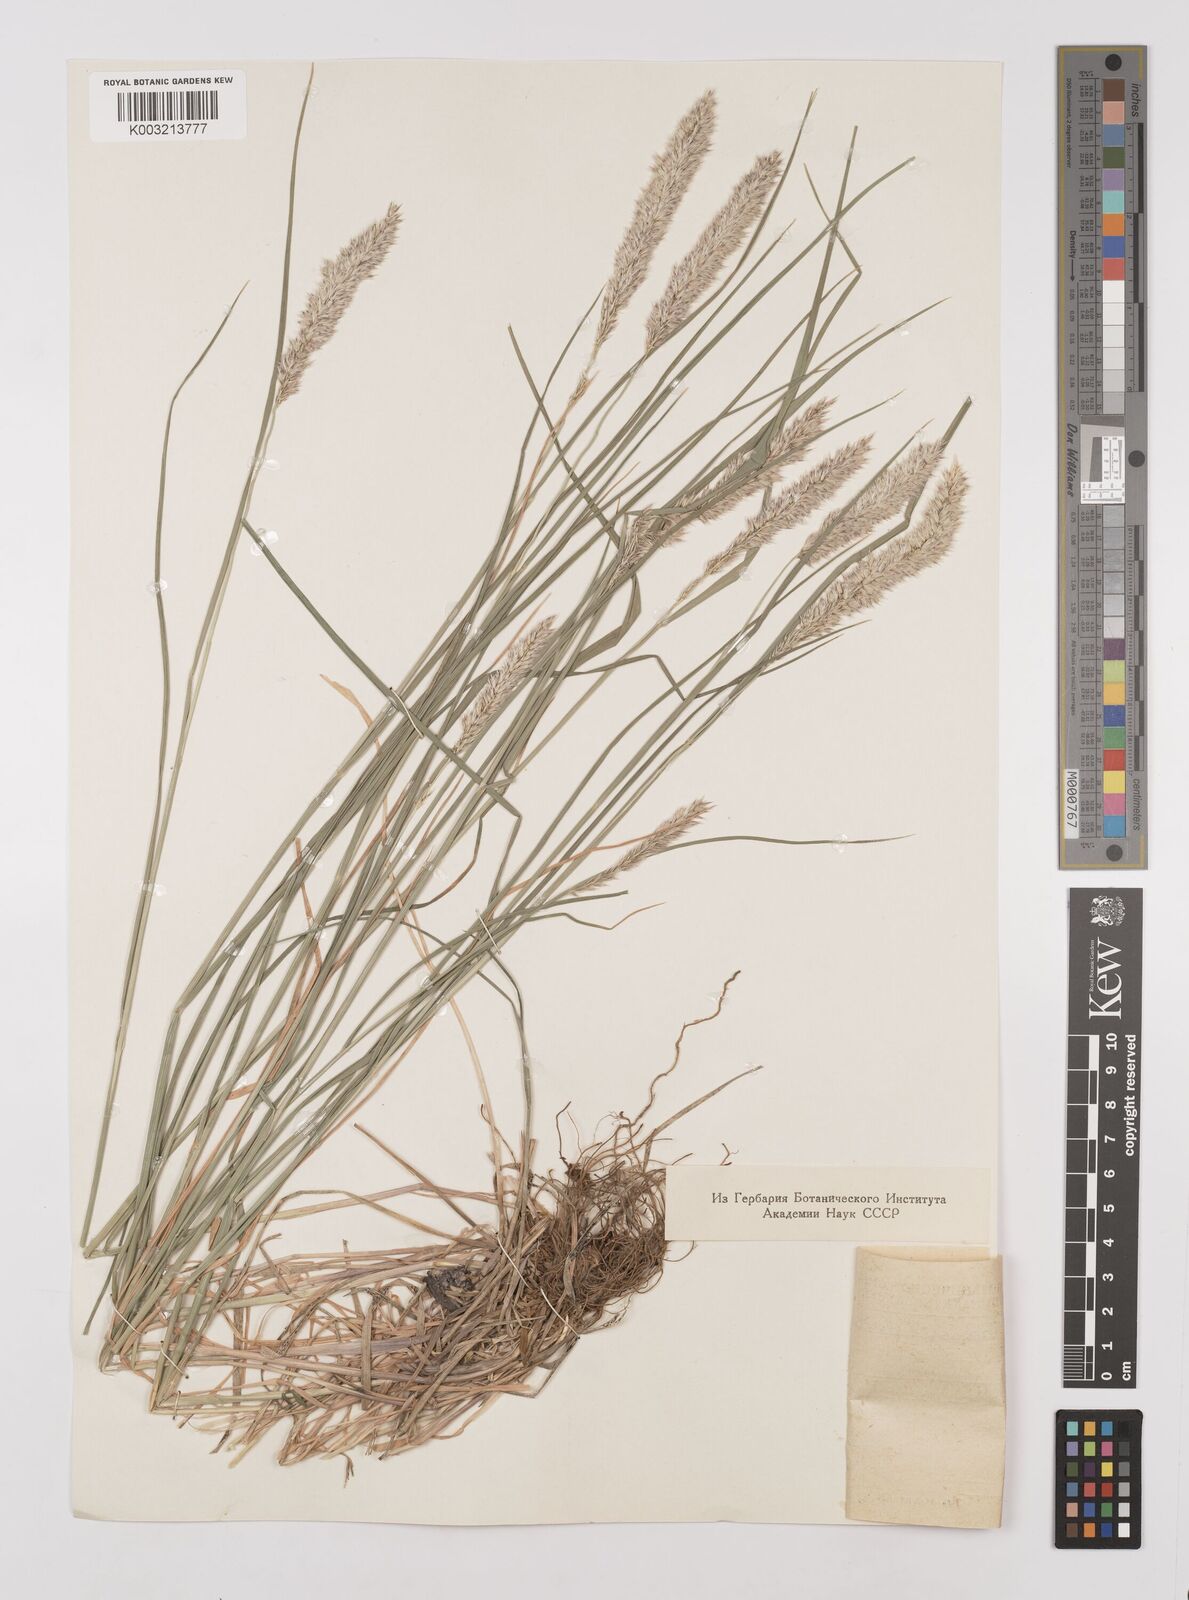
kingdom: Plantae
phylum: Tracheophyta
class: Liliopsida
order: Poales
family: Poaceae
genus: Melica
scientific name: Melica transsilvanica
